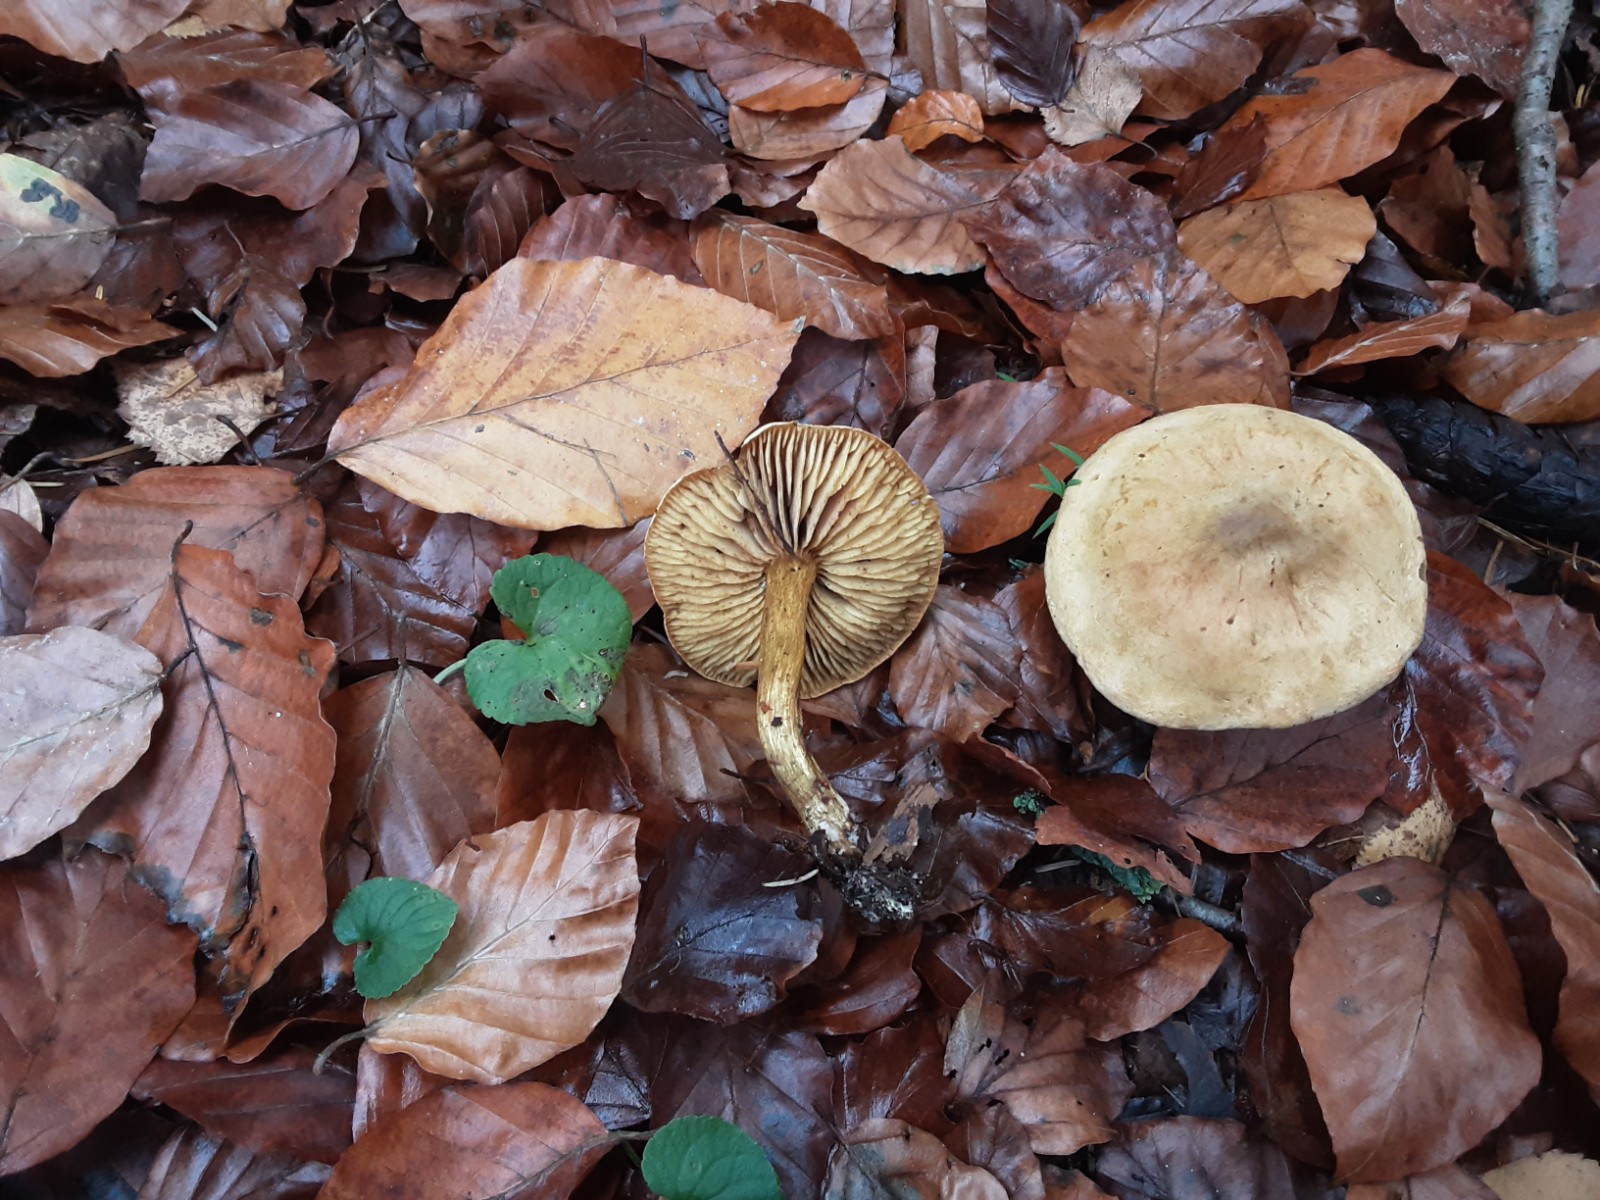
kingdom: Fungi
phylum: Basidiomycota
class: Agaricomycetes
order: Agaricales
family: Tricholomataceae
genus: Tricholoma
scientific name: Tricholoma sulphureum
